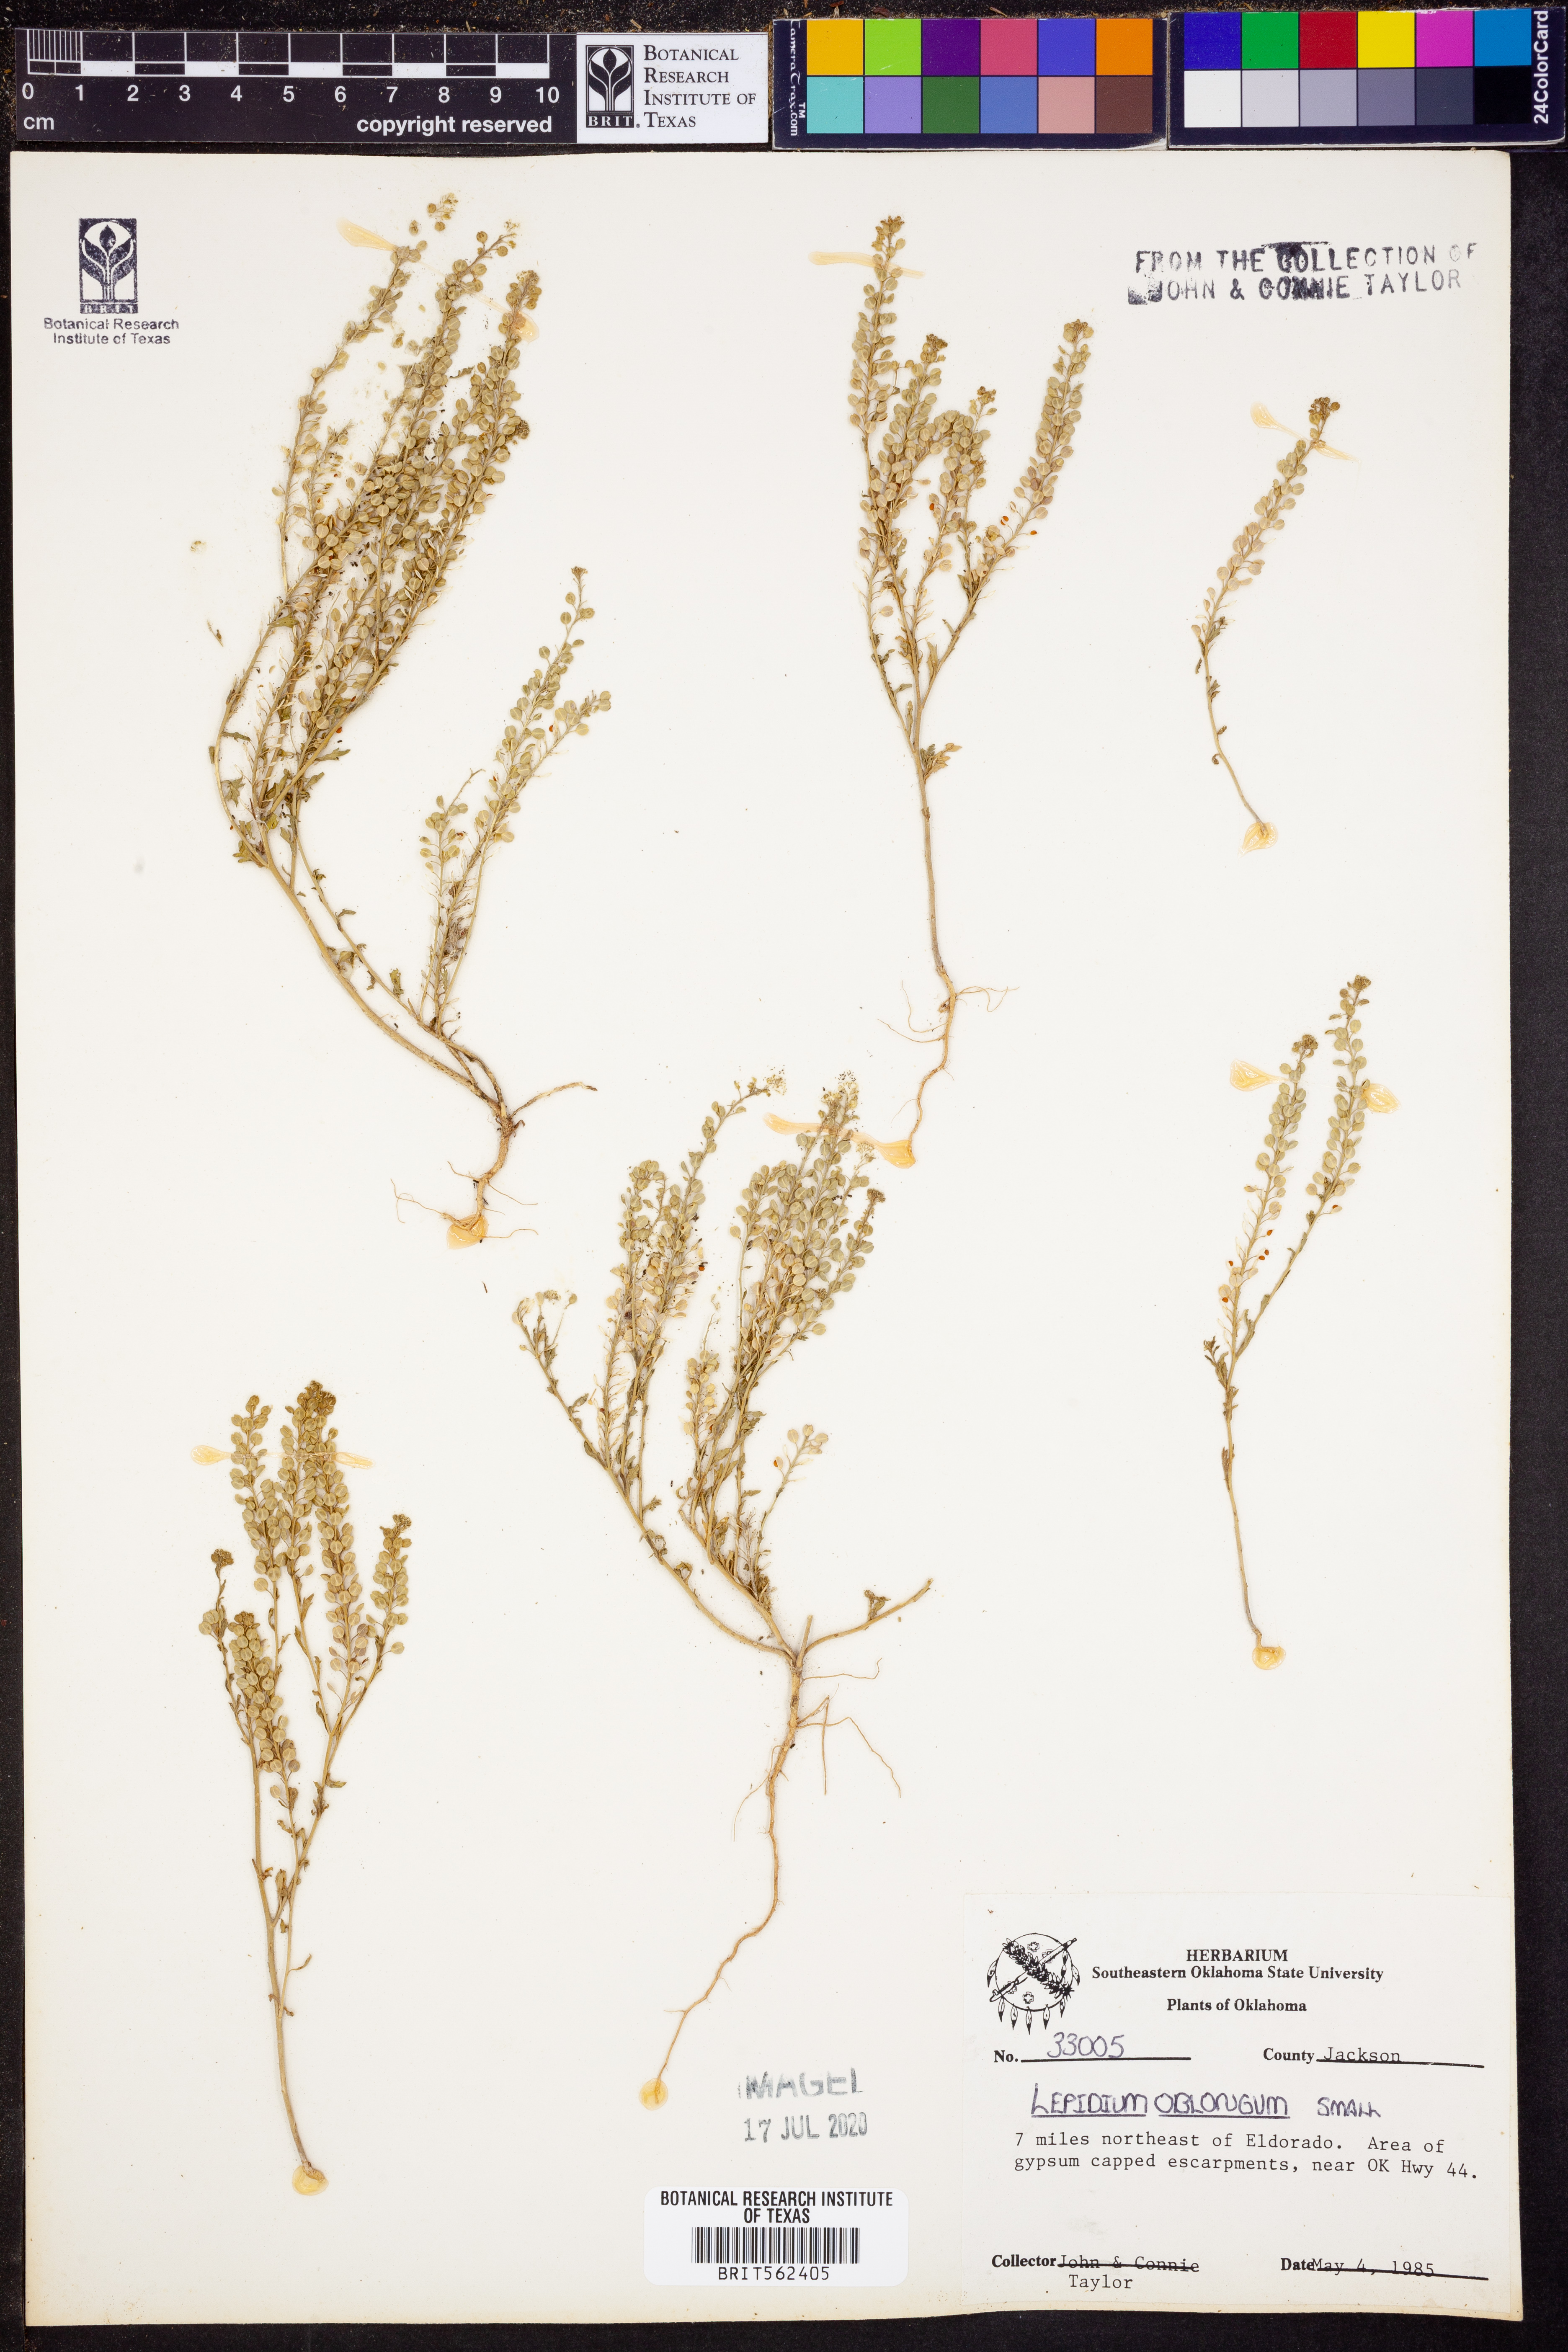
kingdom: Plantae
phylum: Tracheophyta
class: Magnoliopsida
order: Brassicales
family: Brassicaceae
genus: Lepidium
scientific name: Lepidium oblongum
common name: Veiny pepperweed
